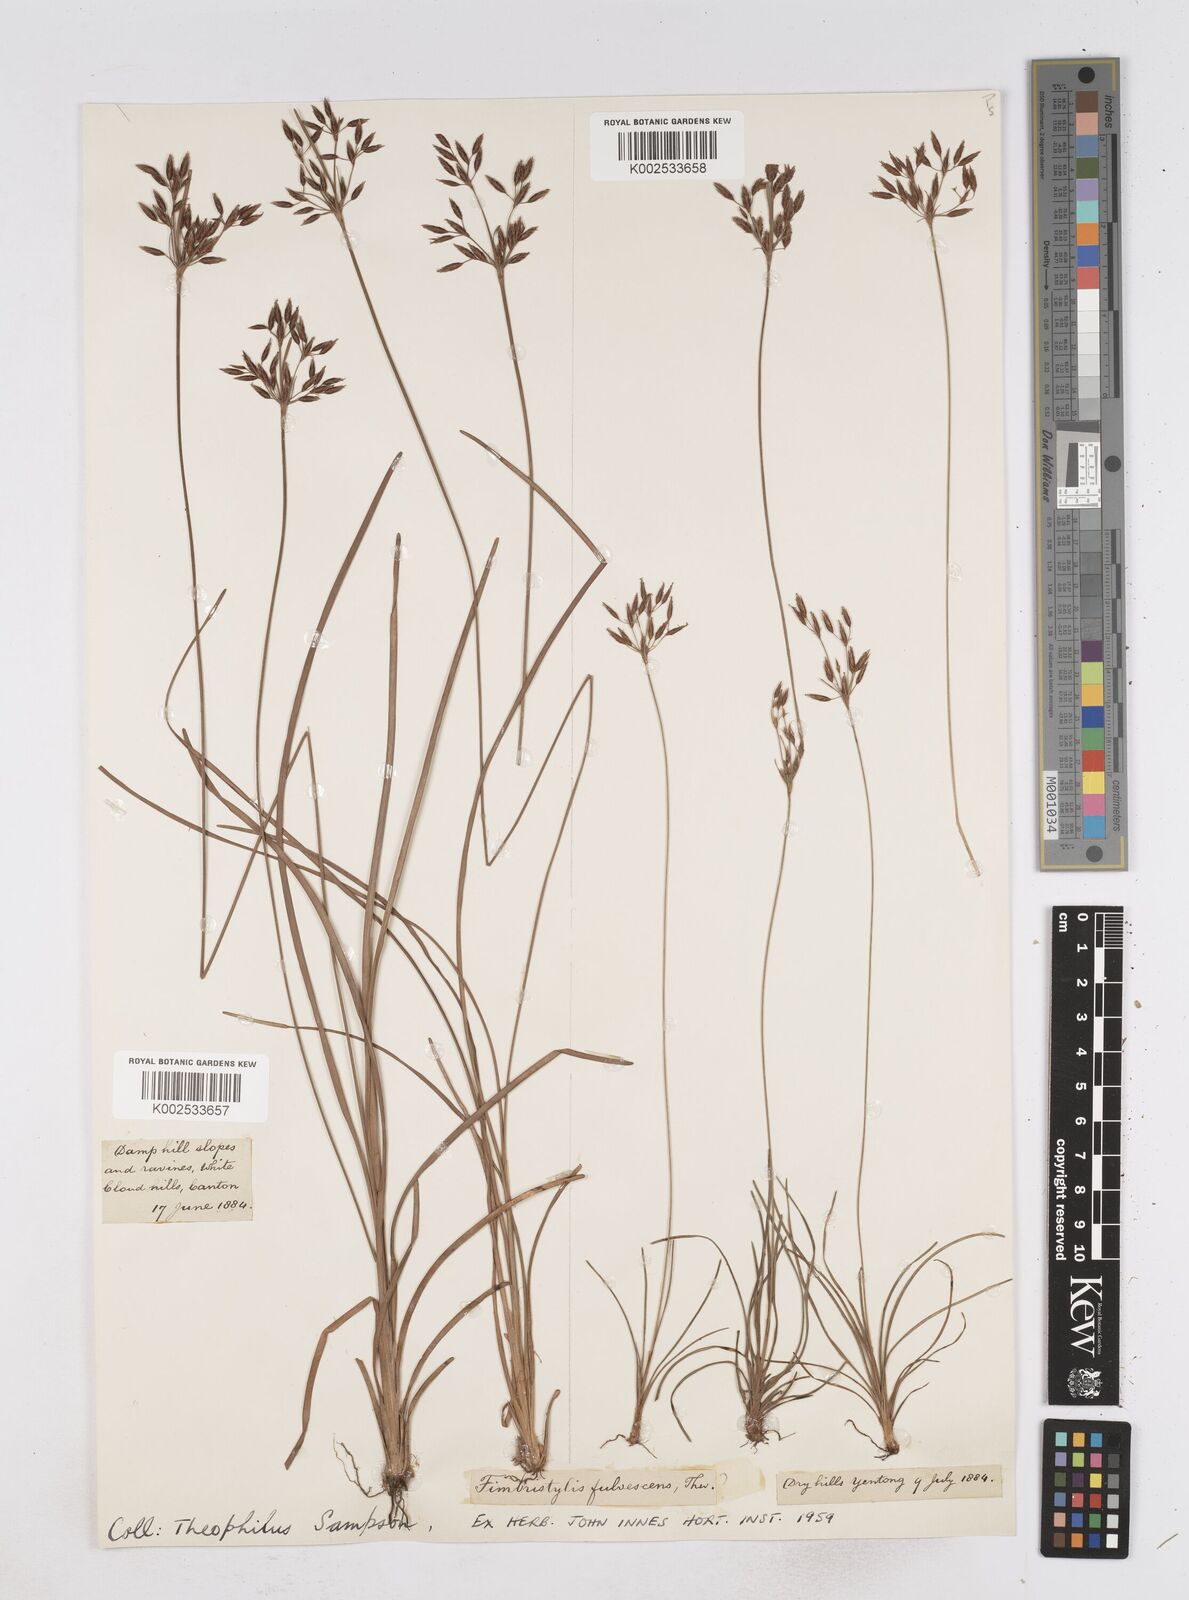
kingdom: Plantae
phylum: Tracheophyta
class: Liliopsida
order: Poales
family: Cyperaceae
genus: Fimbristylis
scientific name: Fimbristylis fusca
